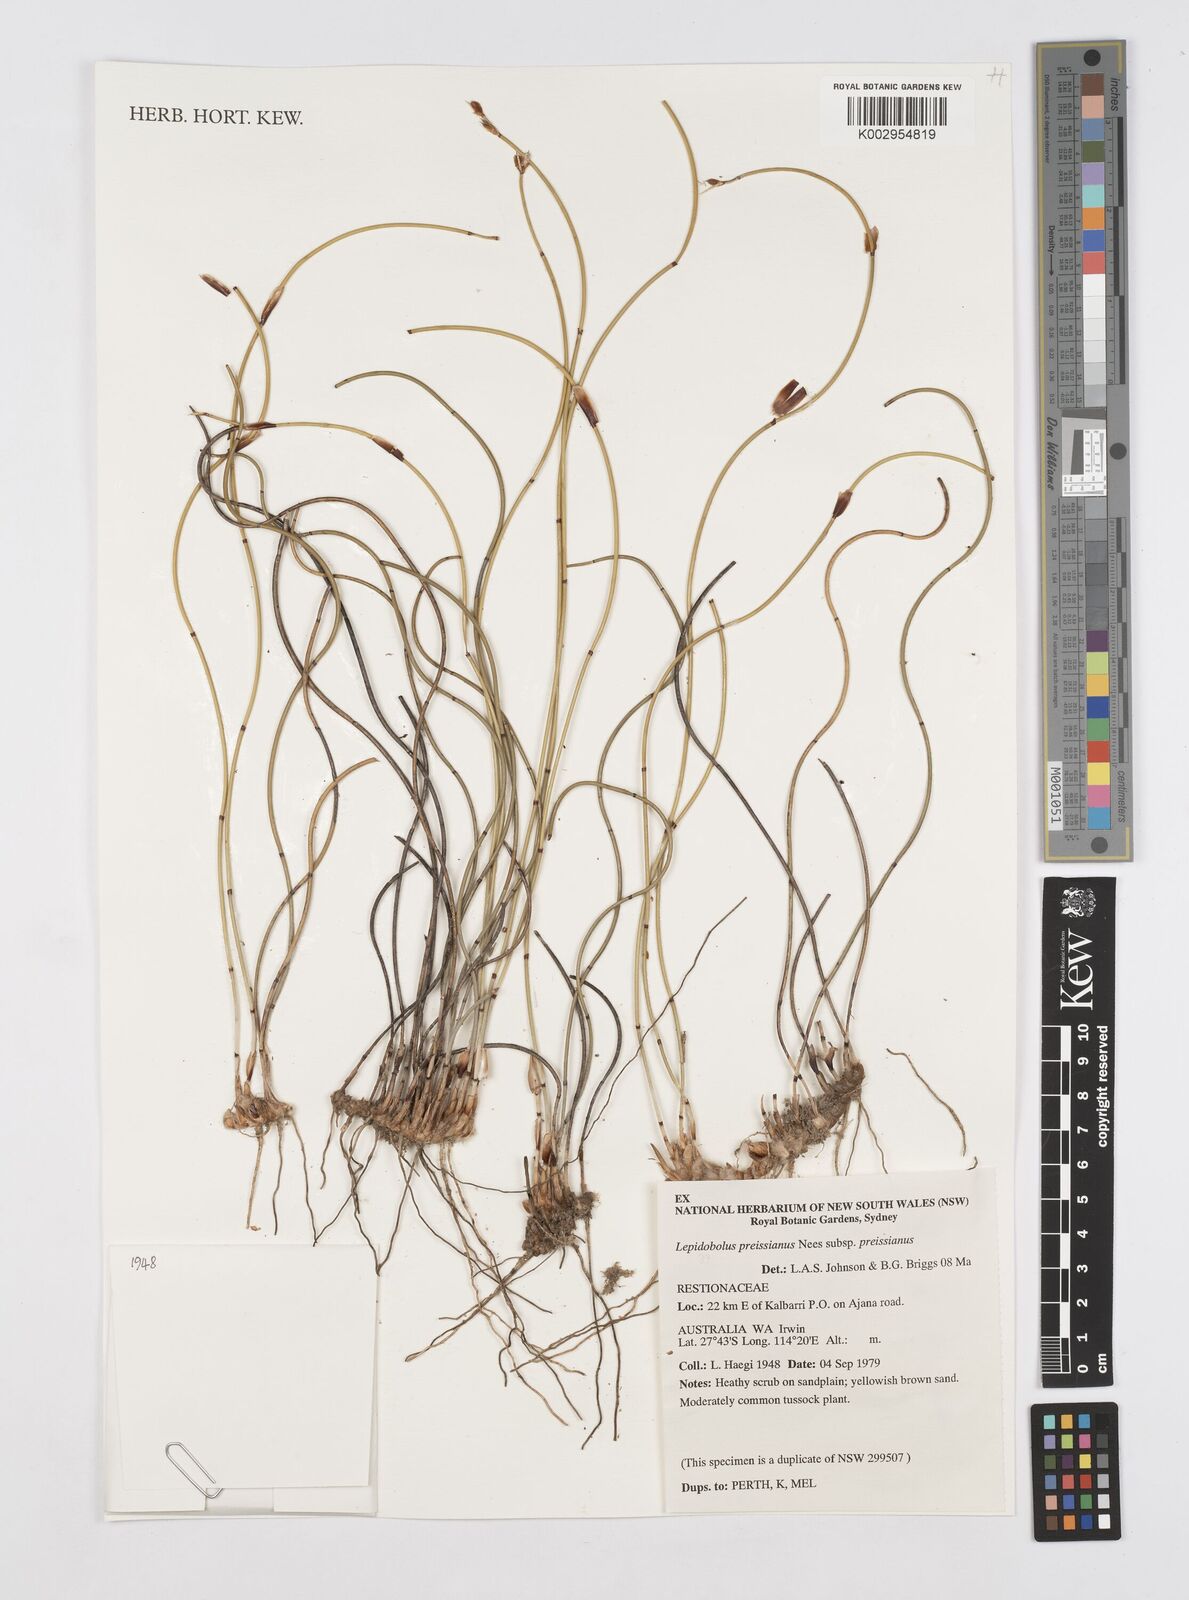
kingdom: Plantae
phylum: Tracheophyta
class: Liliopsida
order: Poales
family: Restionaceae
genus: Lepidobolus
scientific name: Lepidobolus preissianus
